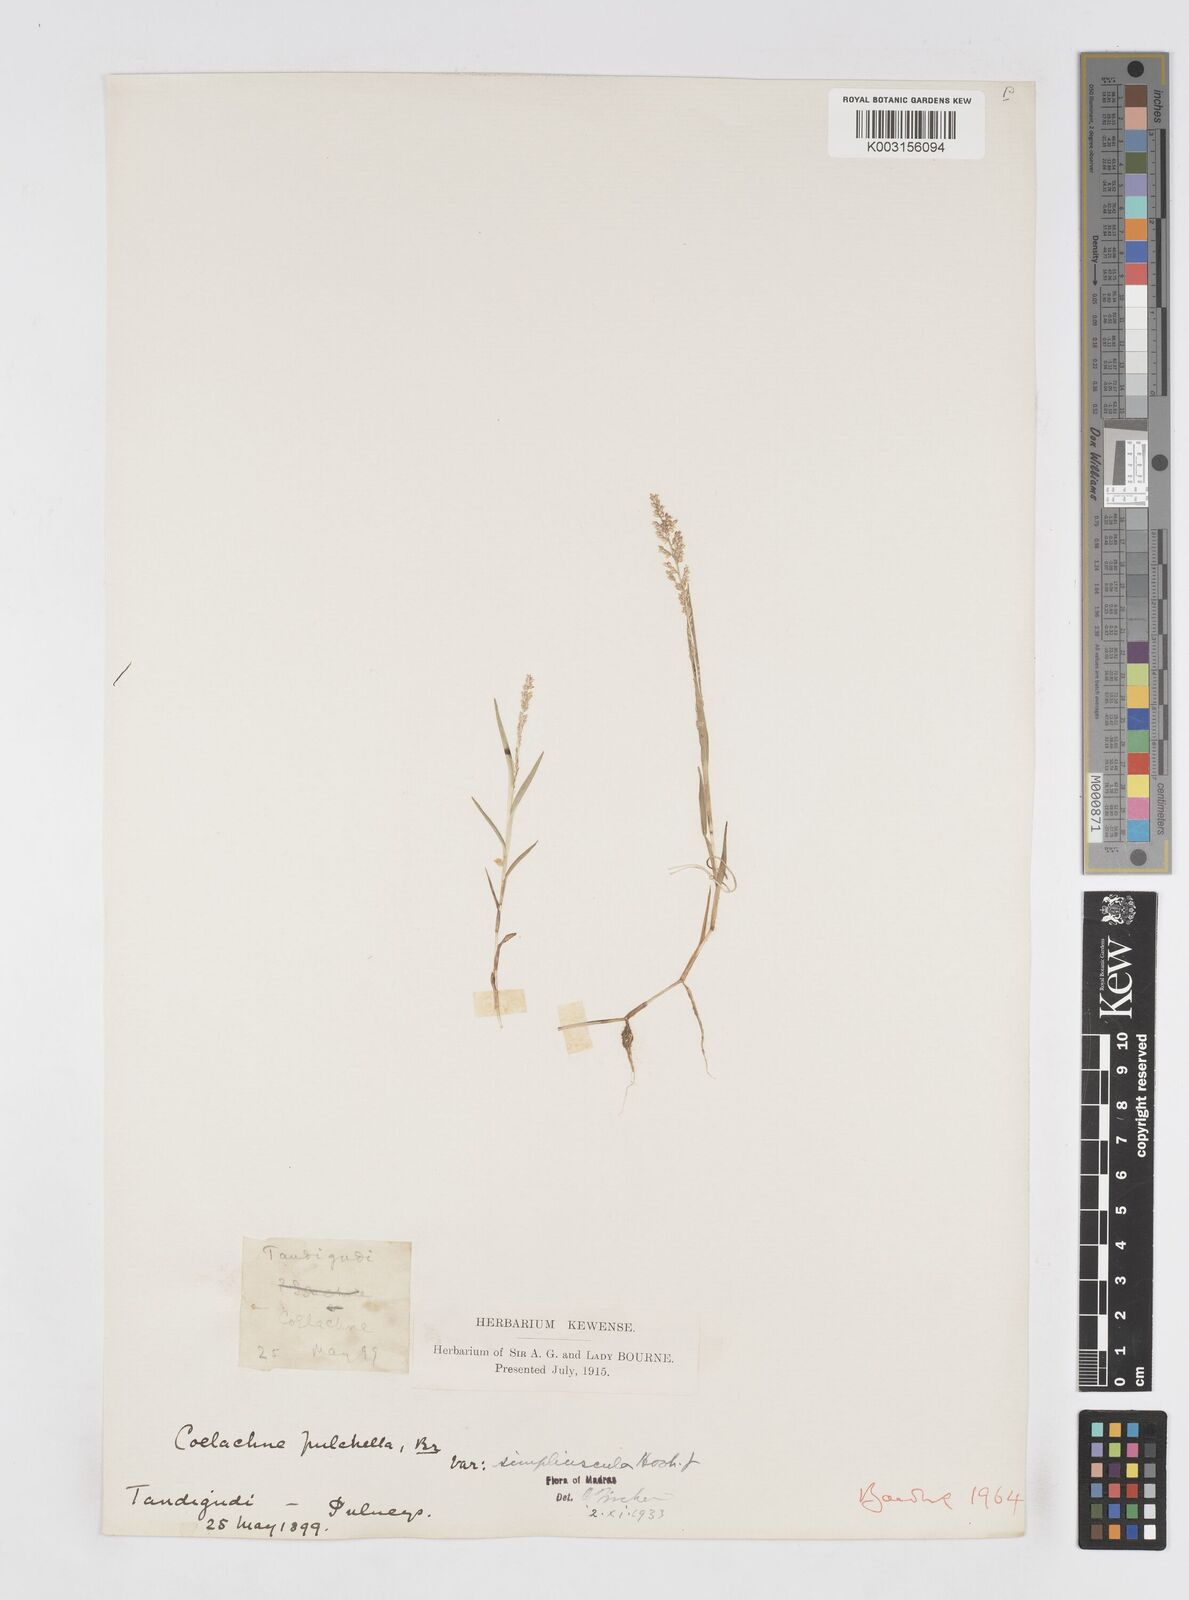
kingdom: Plantae
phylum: Tracheophyta
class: Liliopsida
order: Poales
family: Poaceae
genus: Coelachne
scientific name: Coelachne simpliciuscula
